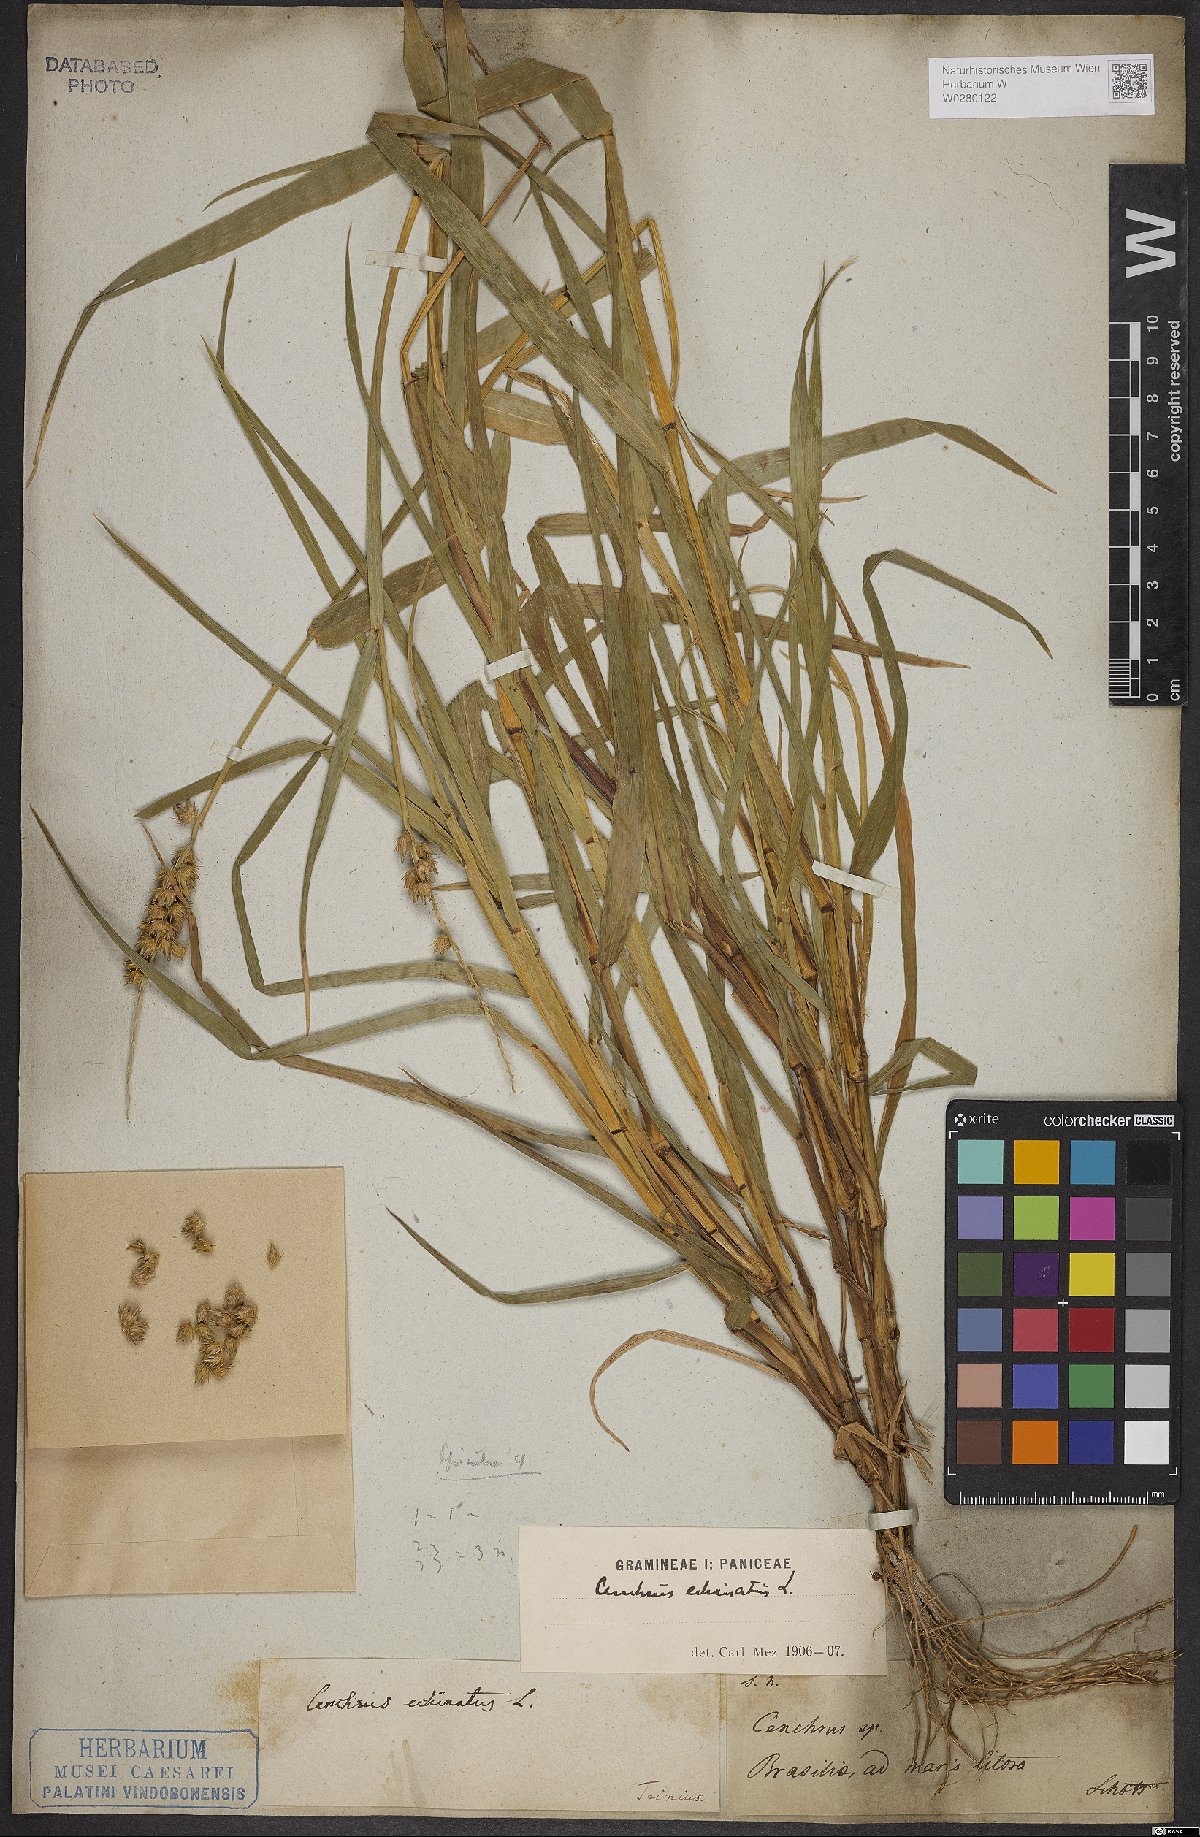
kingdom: Plantae
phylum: Tracheophyta
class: Liliopsida
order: Poales
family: Poaceae
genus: Cenchrus
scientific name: Cenchrus echinatus
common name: Southern sandbur
